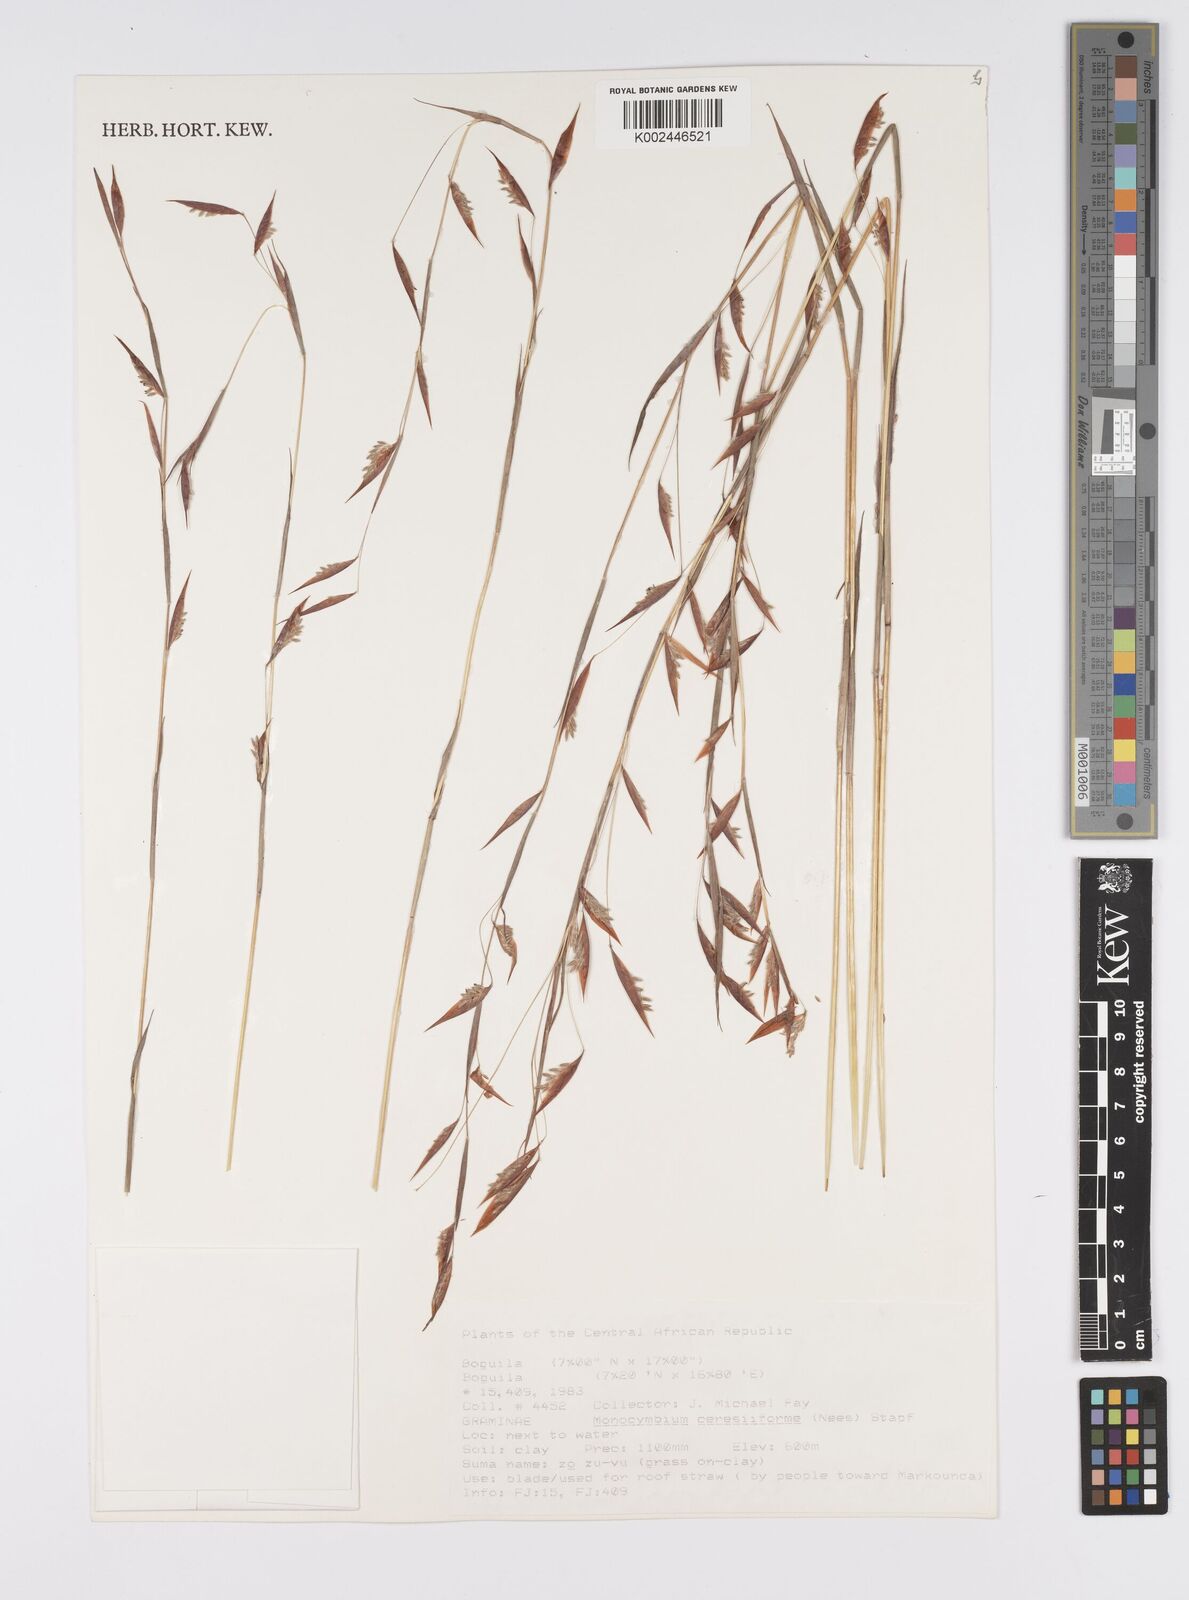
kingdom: Plantae
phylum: Tracheophyta
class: Liliopsida
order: Poales
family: Poaceae
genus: Monocymbium
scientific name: Monocymbium ceresiiforme
